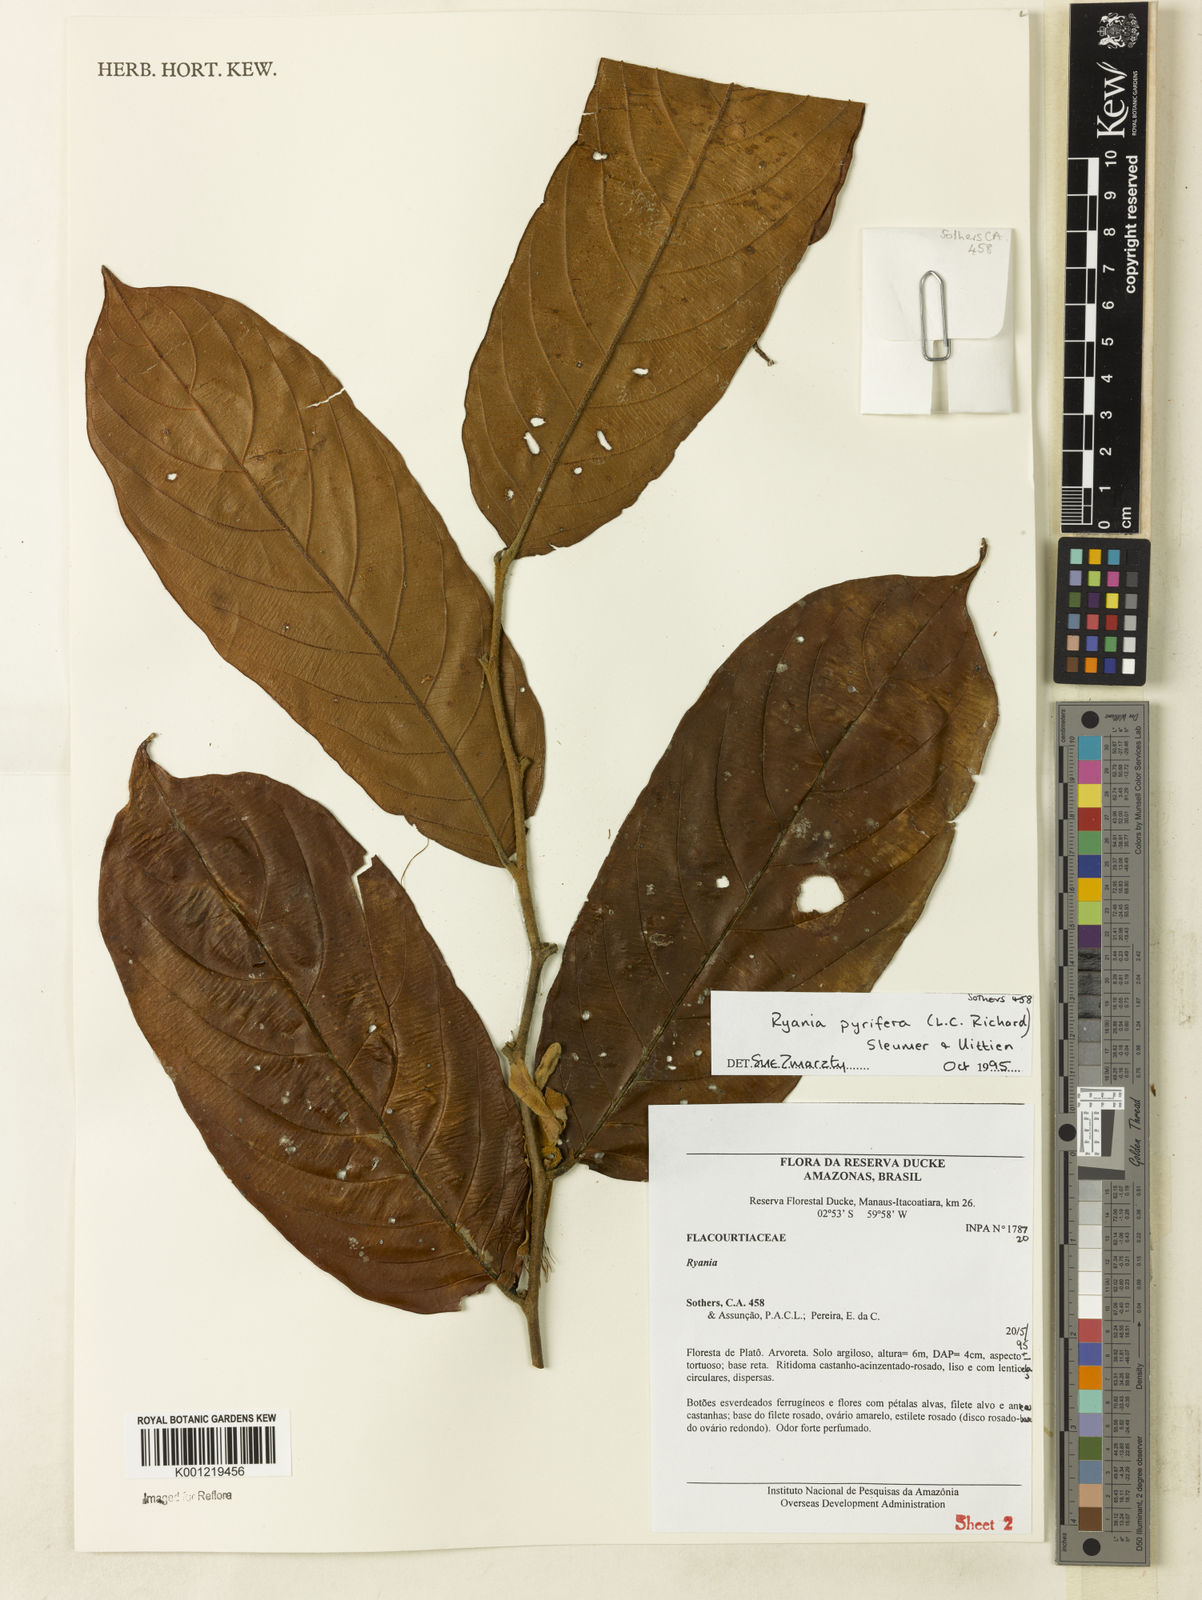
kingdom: Plantae
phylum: Tracheophyta
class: Magnoliopsida
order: Malpighiales
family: Salicaceae
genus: Ryania
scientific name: Ryania pyrifera
